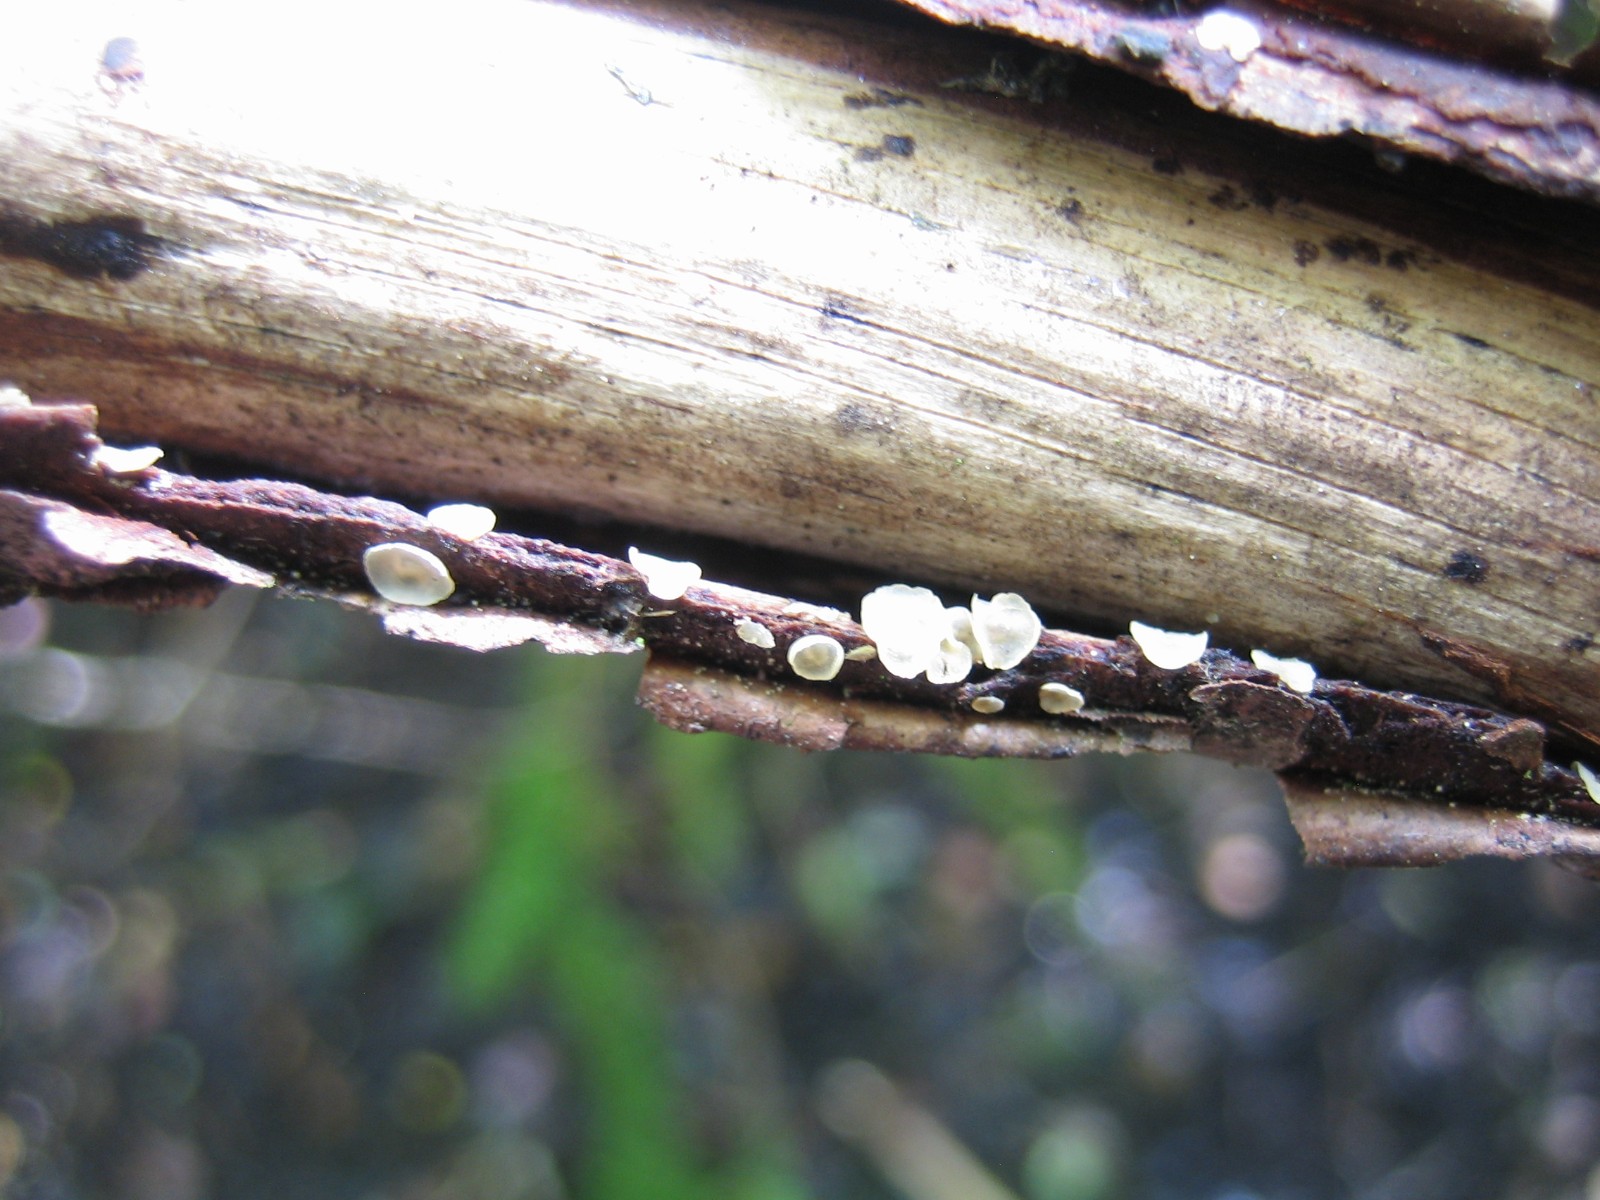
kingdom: Fungi
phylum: Ascomycota
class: Orbiliomycetes
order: Orbiliales
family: Orbiliaceae
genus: Hyalorbilia
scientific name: Hyalorbilia
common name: voksskive
